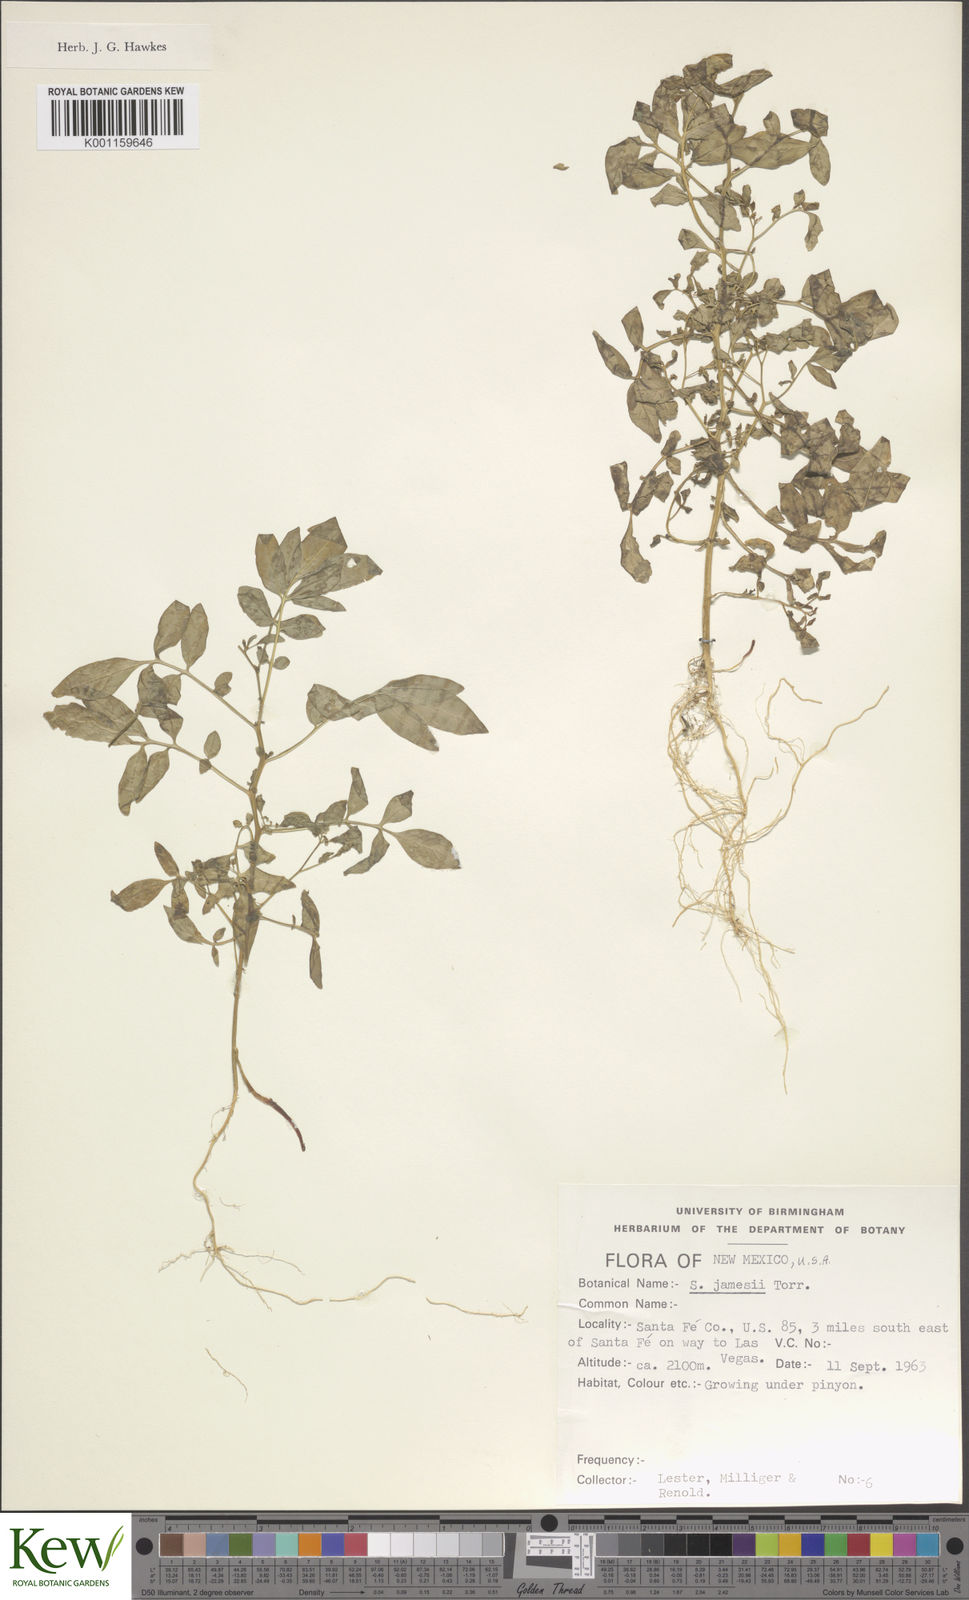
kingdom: Plantae
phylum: Tracheophyta
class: Magnoliopsida
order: Solanales
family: Solanaceae
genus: Solanum
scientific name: Solanum jamesii
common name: Wild potato
